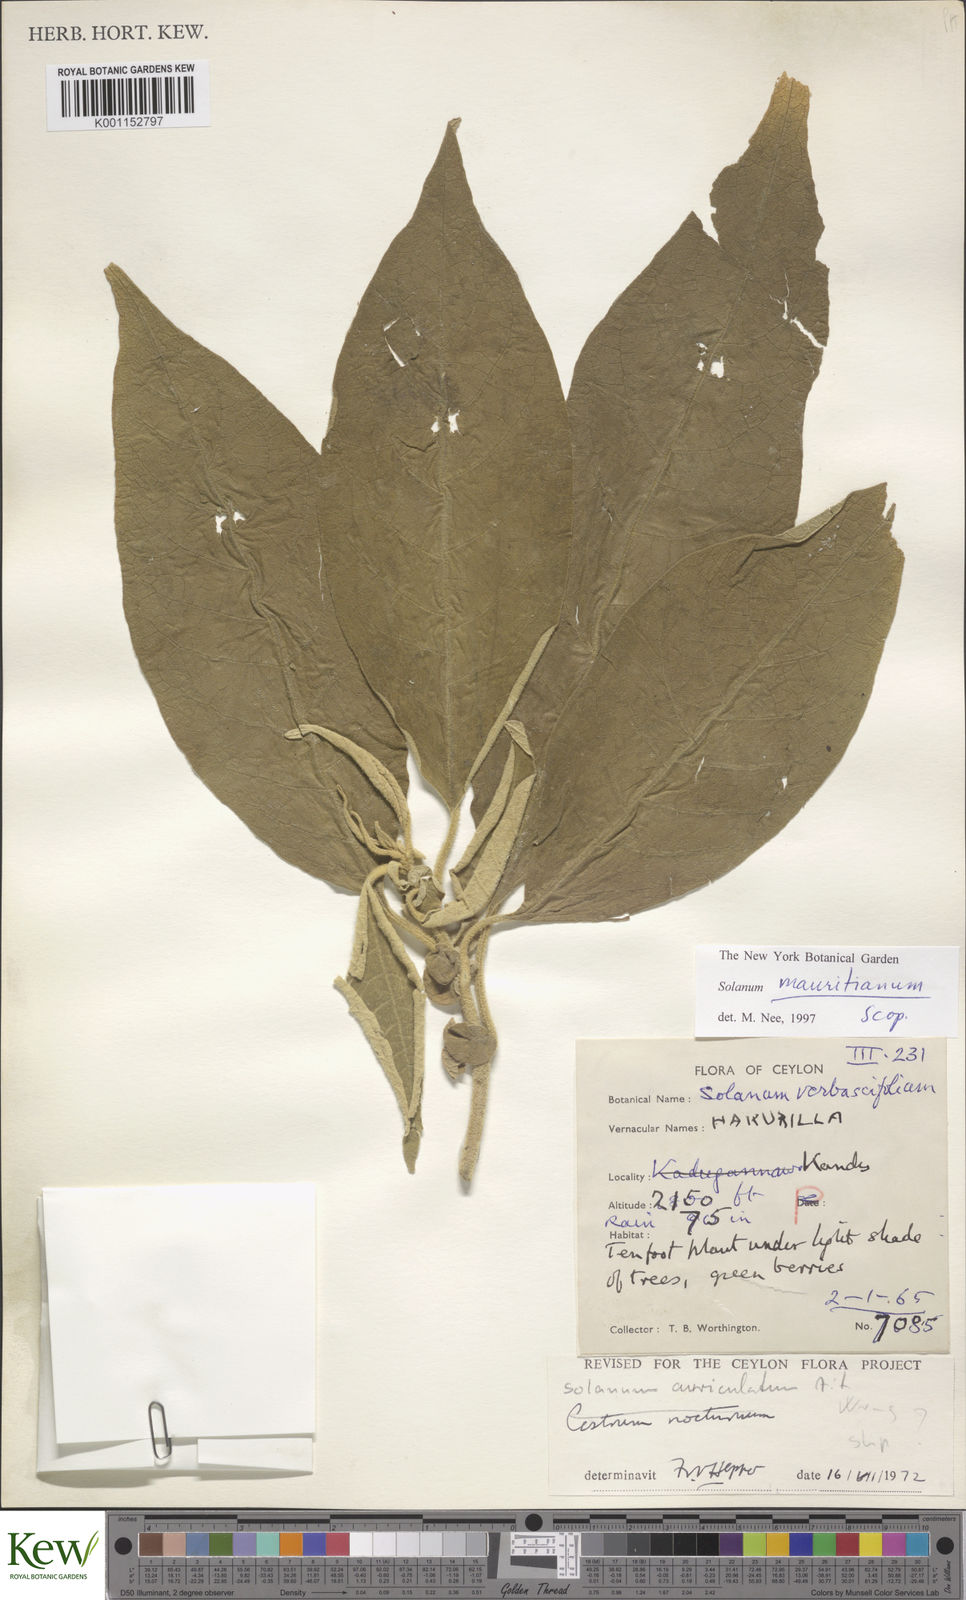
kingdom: Plantae
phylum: Tracheophyta
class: Magnoliopsida
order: Solanales
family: Solanaceae
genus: Solanum
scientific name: Solanum mauritianum
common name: Earleaf nightshade
